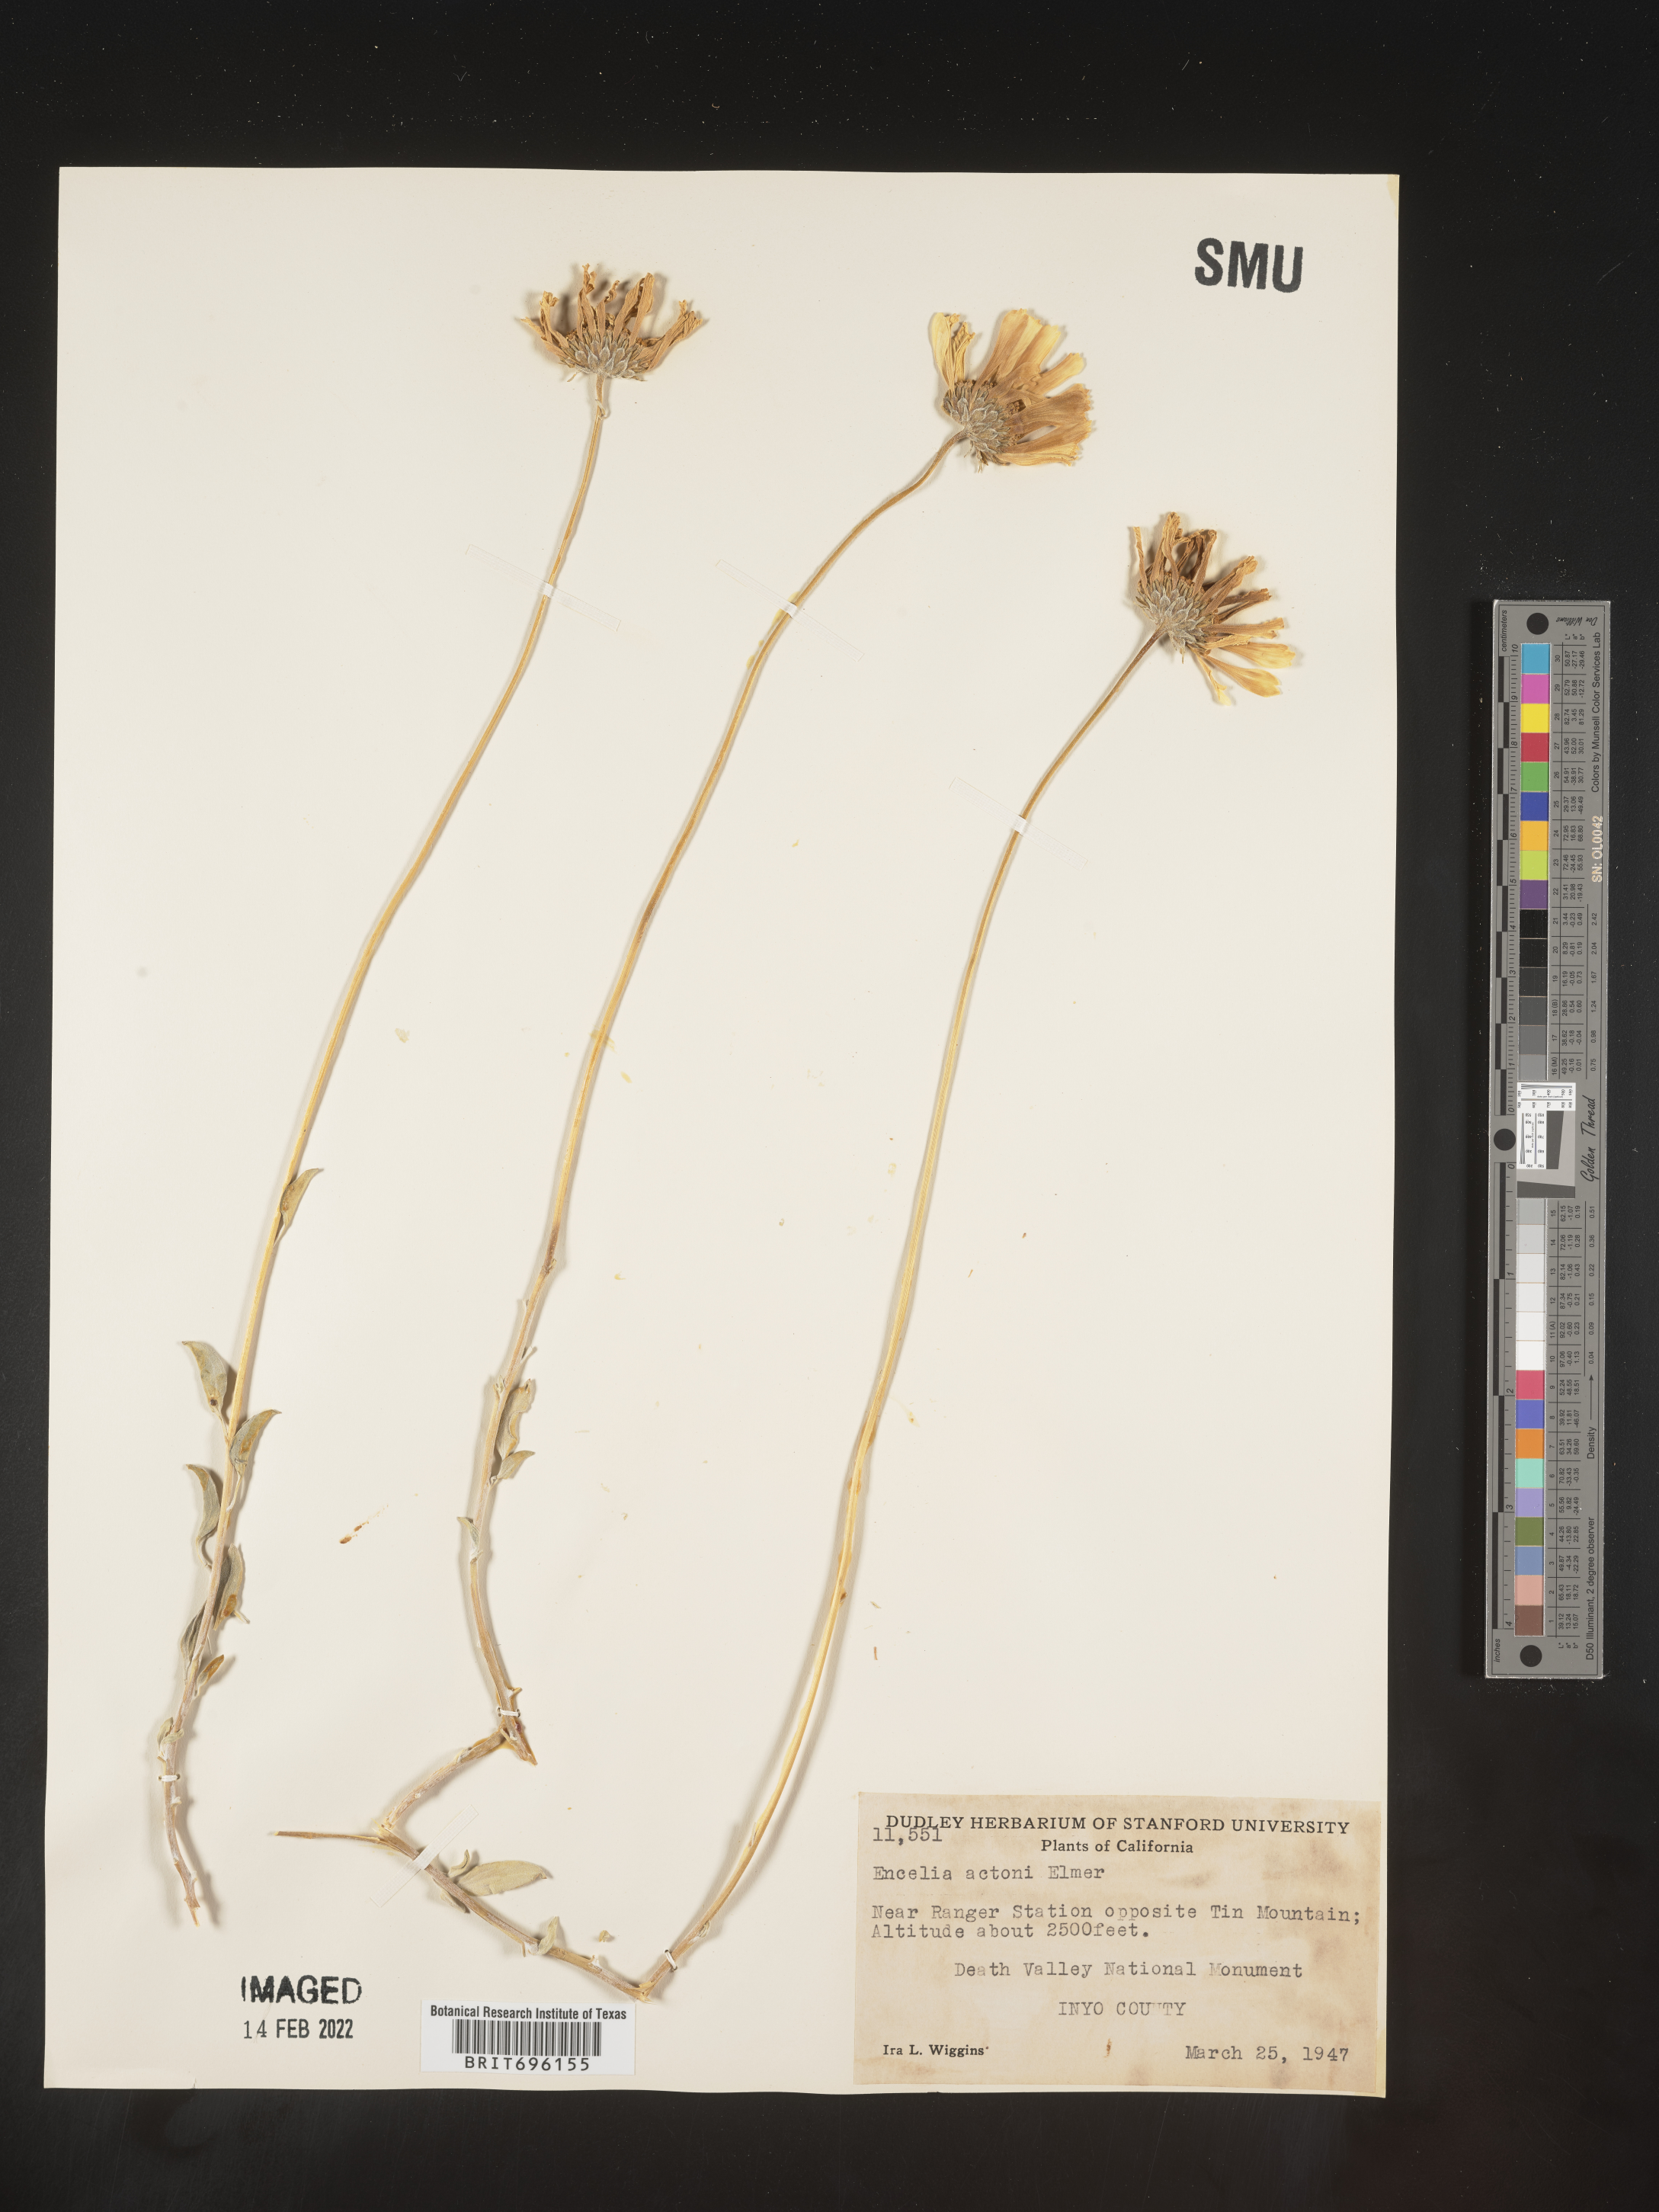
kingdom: Plantae
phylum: Tracheophyta
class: Magnoliopsida
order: Asterales
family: Asteraceae
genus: Encelia
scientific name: Encelia actoni
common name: Acton encelia
